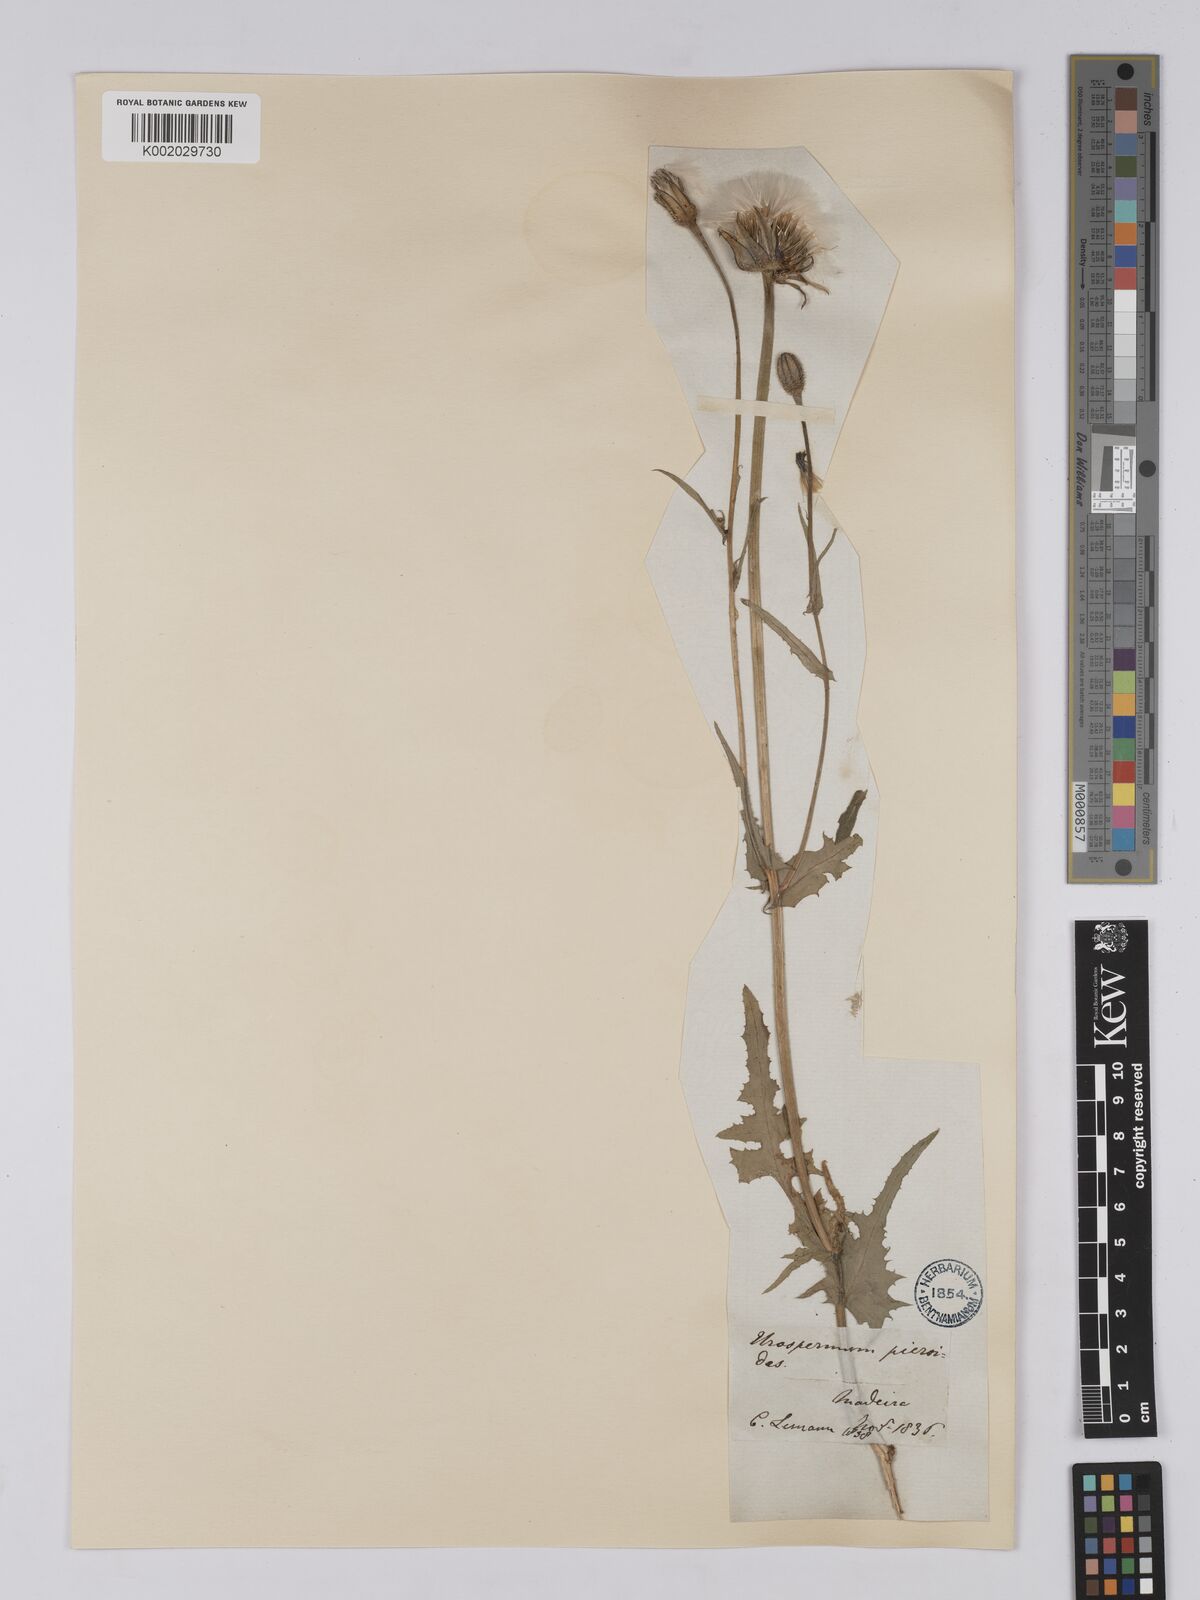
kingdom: Plantae
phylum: Tracheophyta
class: Magnoliopsida
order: Asterales
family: Asteraceae
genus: Urospermum
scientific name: Urospermum picroides
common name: False hawkbit
